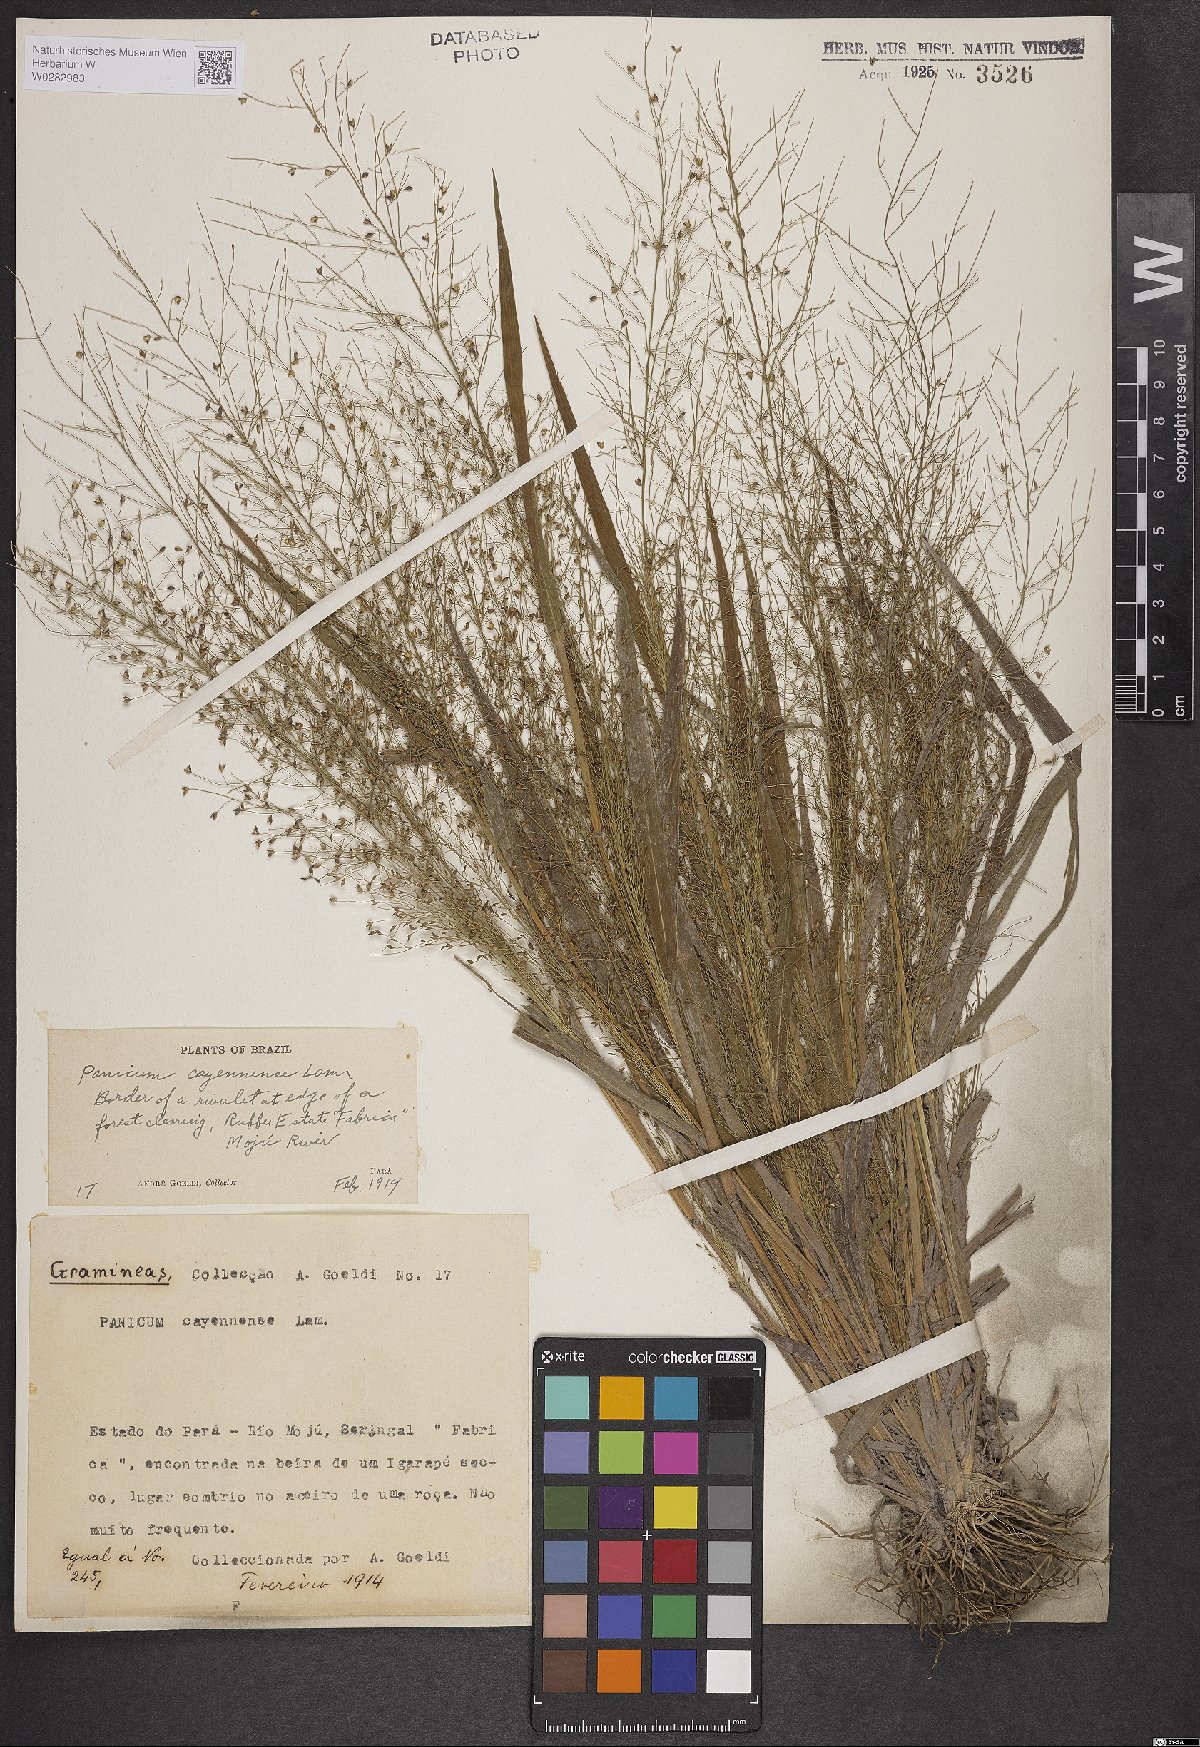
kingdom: Plantae
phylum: Tracheophyta
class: Liliopsida
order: Poales
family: Poaceae
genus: Panicum
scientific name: Panicum peladoense
